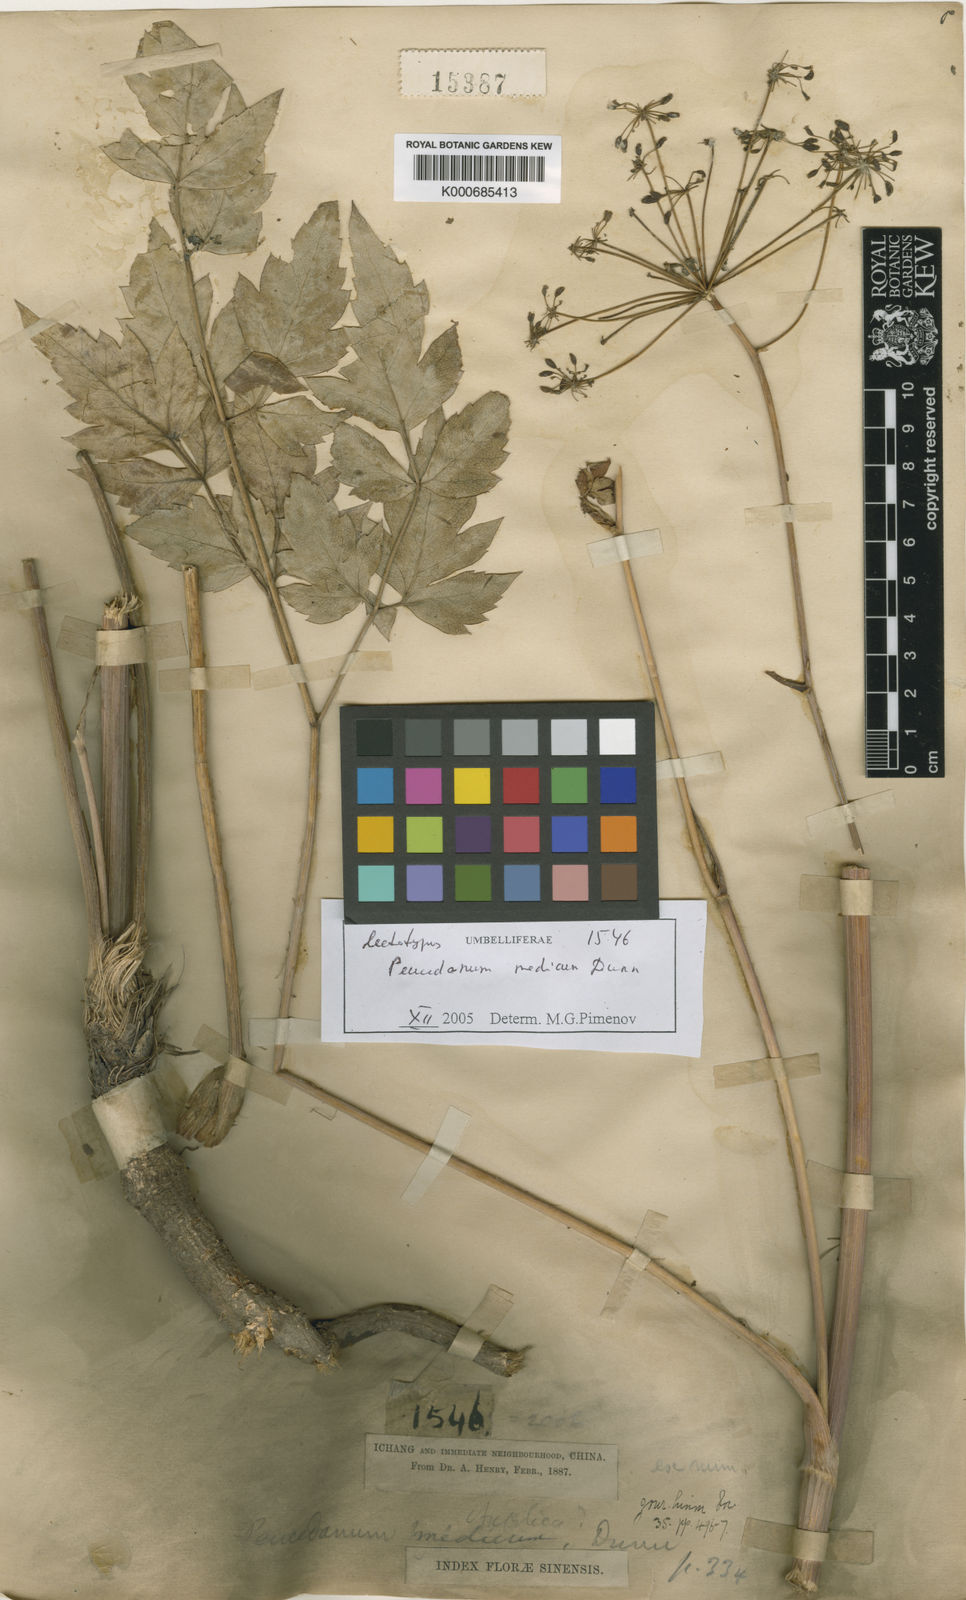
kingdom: Plantae
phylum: Tracheophyta
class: Magnoliopsida
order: Apiales
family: Apiaceae
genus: Peucedanum
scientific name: Peucedanum medicum
